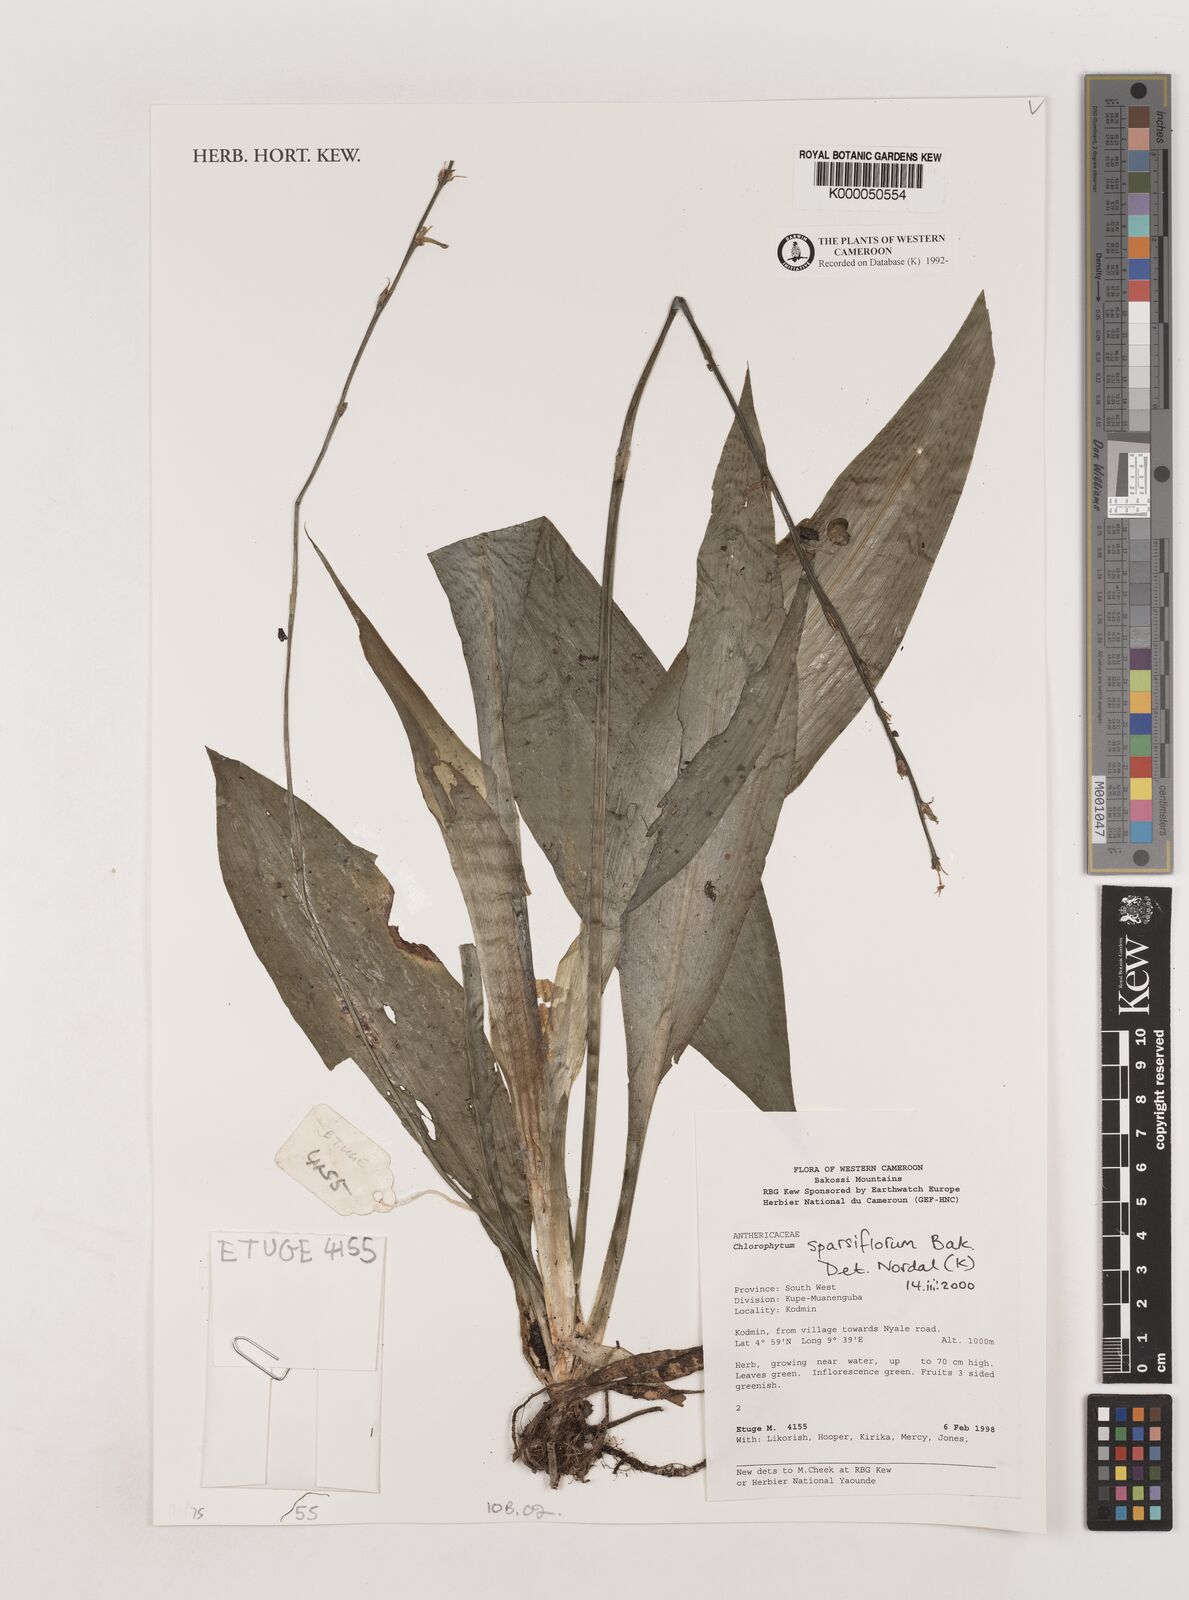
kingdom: Plantae
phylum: Tracheophyta
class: Liliopsida
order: Asparagales
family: Asparagaceae
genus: Chlorophytum
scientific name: Chlorophytum sparsiflorum
